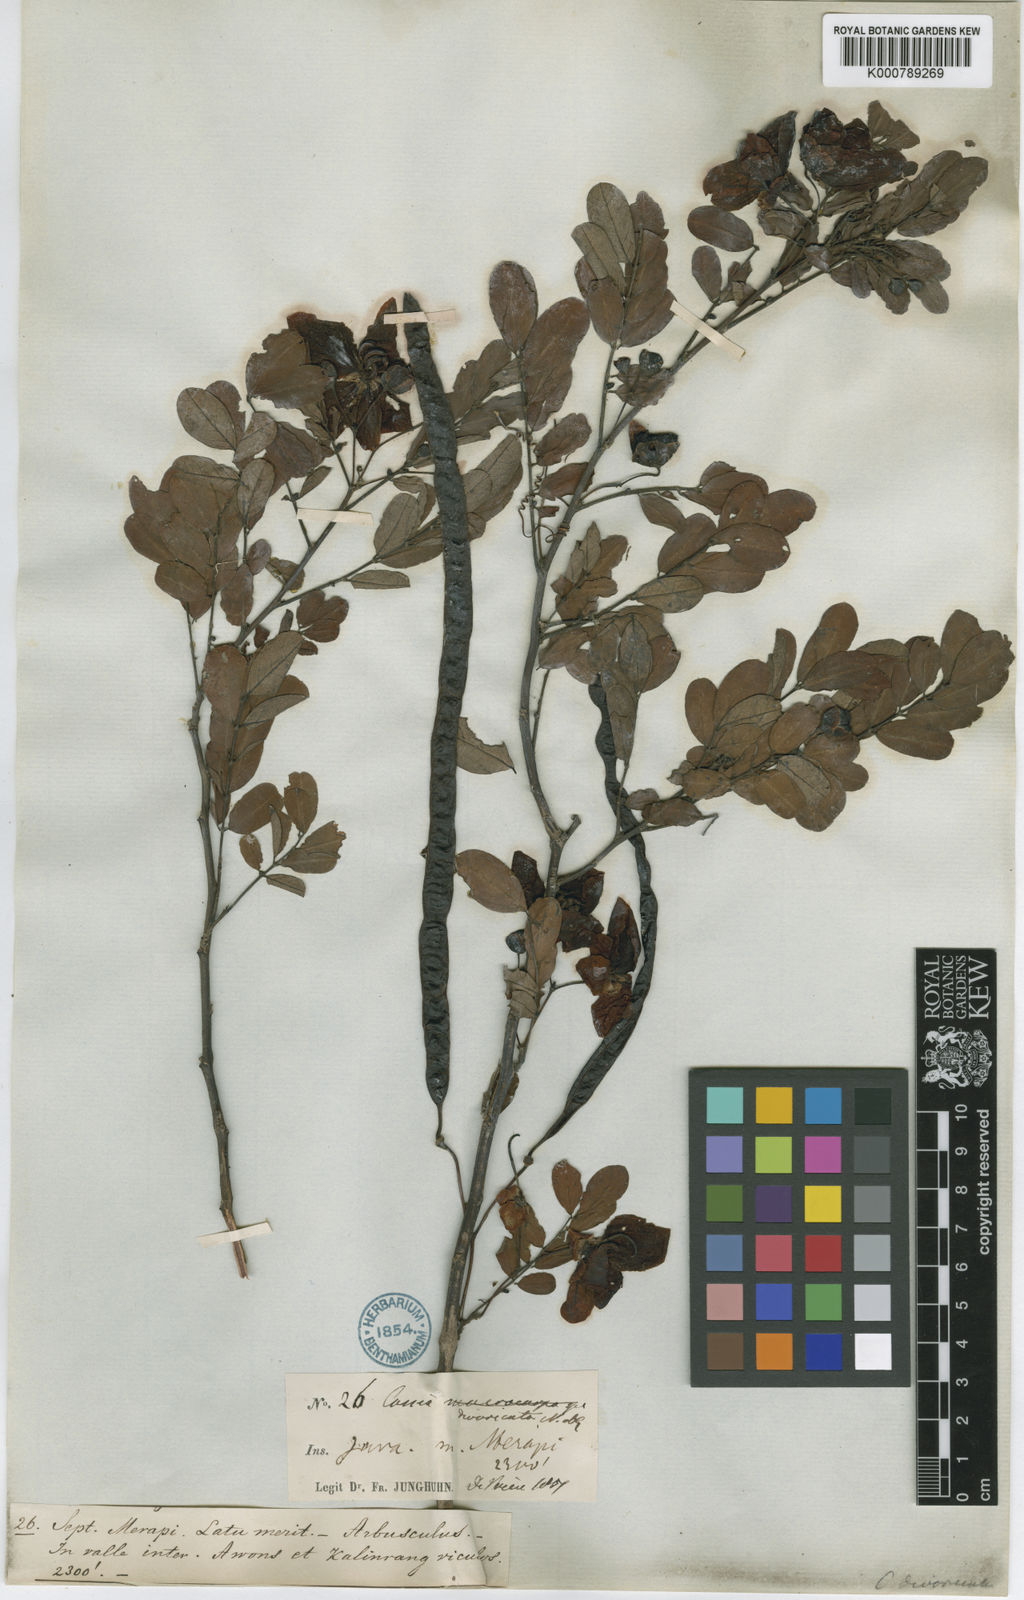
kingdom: Plantae
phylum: Tracheophyta
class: Magnoliopsida
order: Fabales
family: Fabaceae
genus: Senna
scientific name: Senna divaricata
